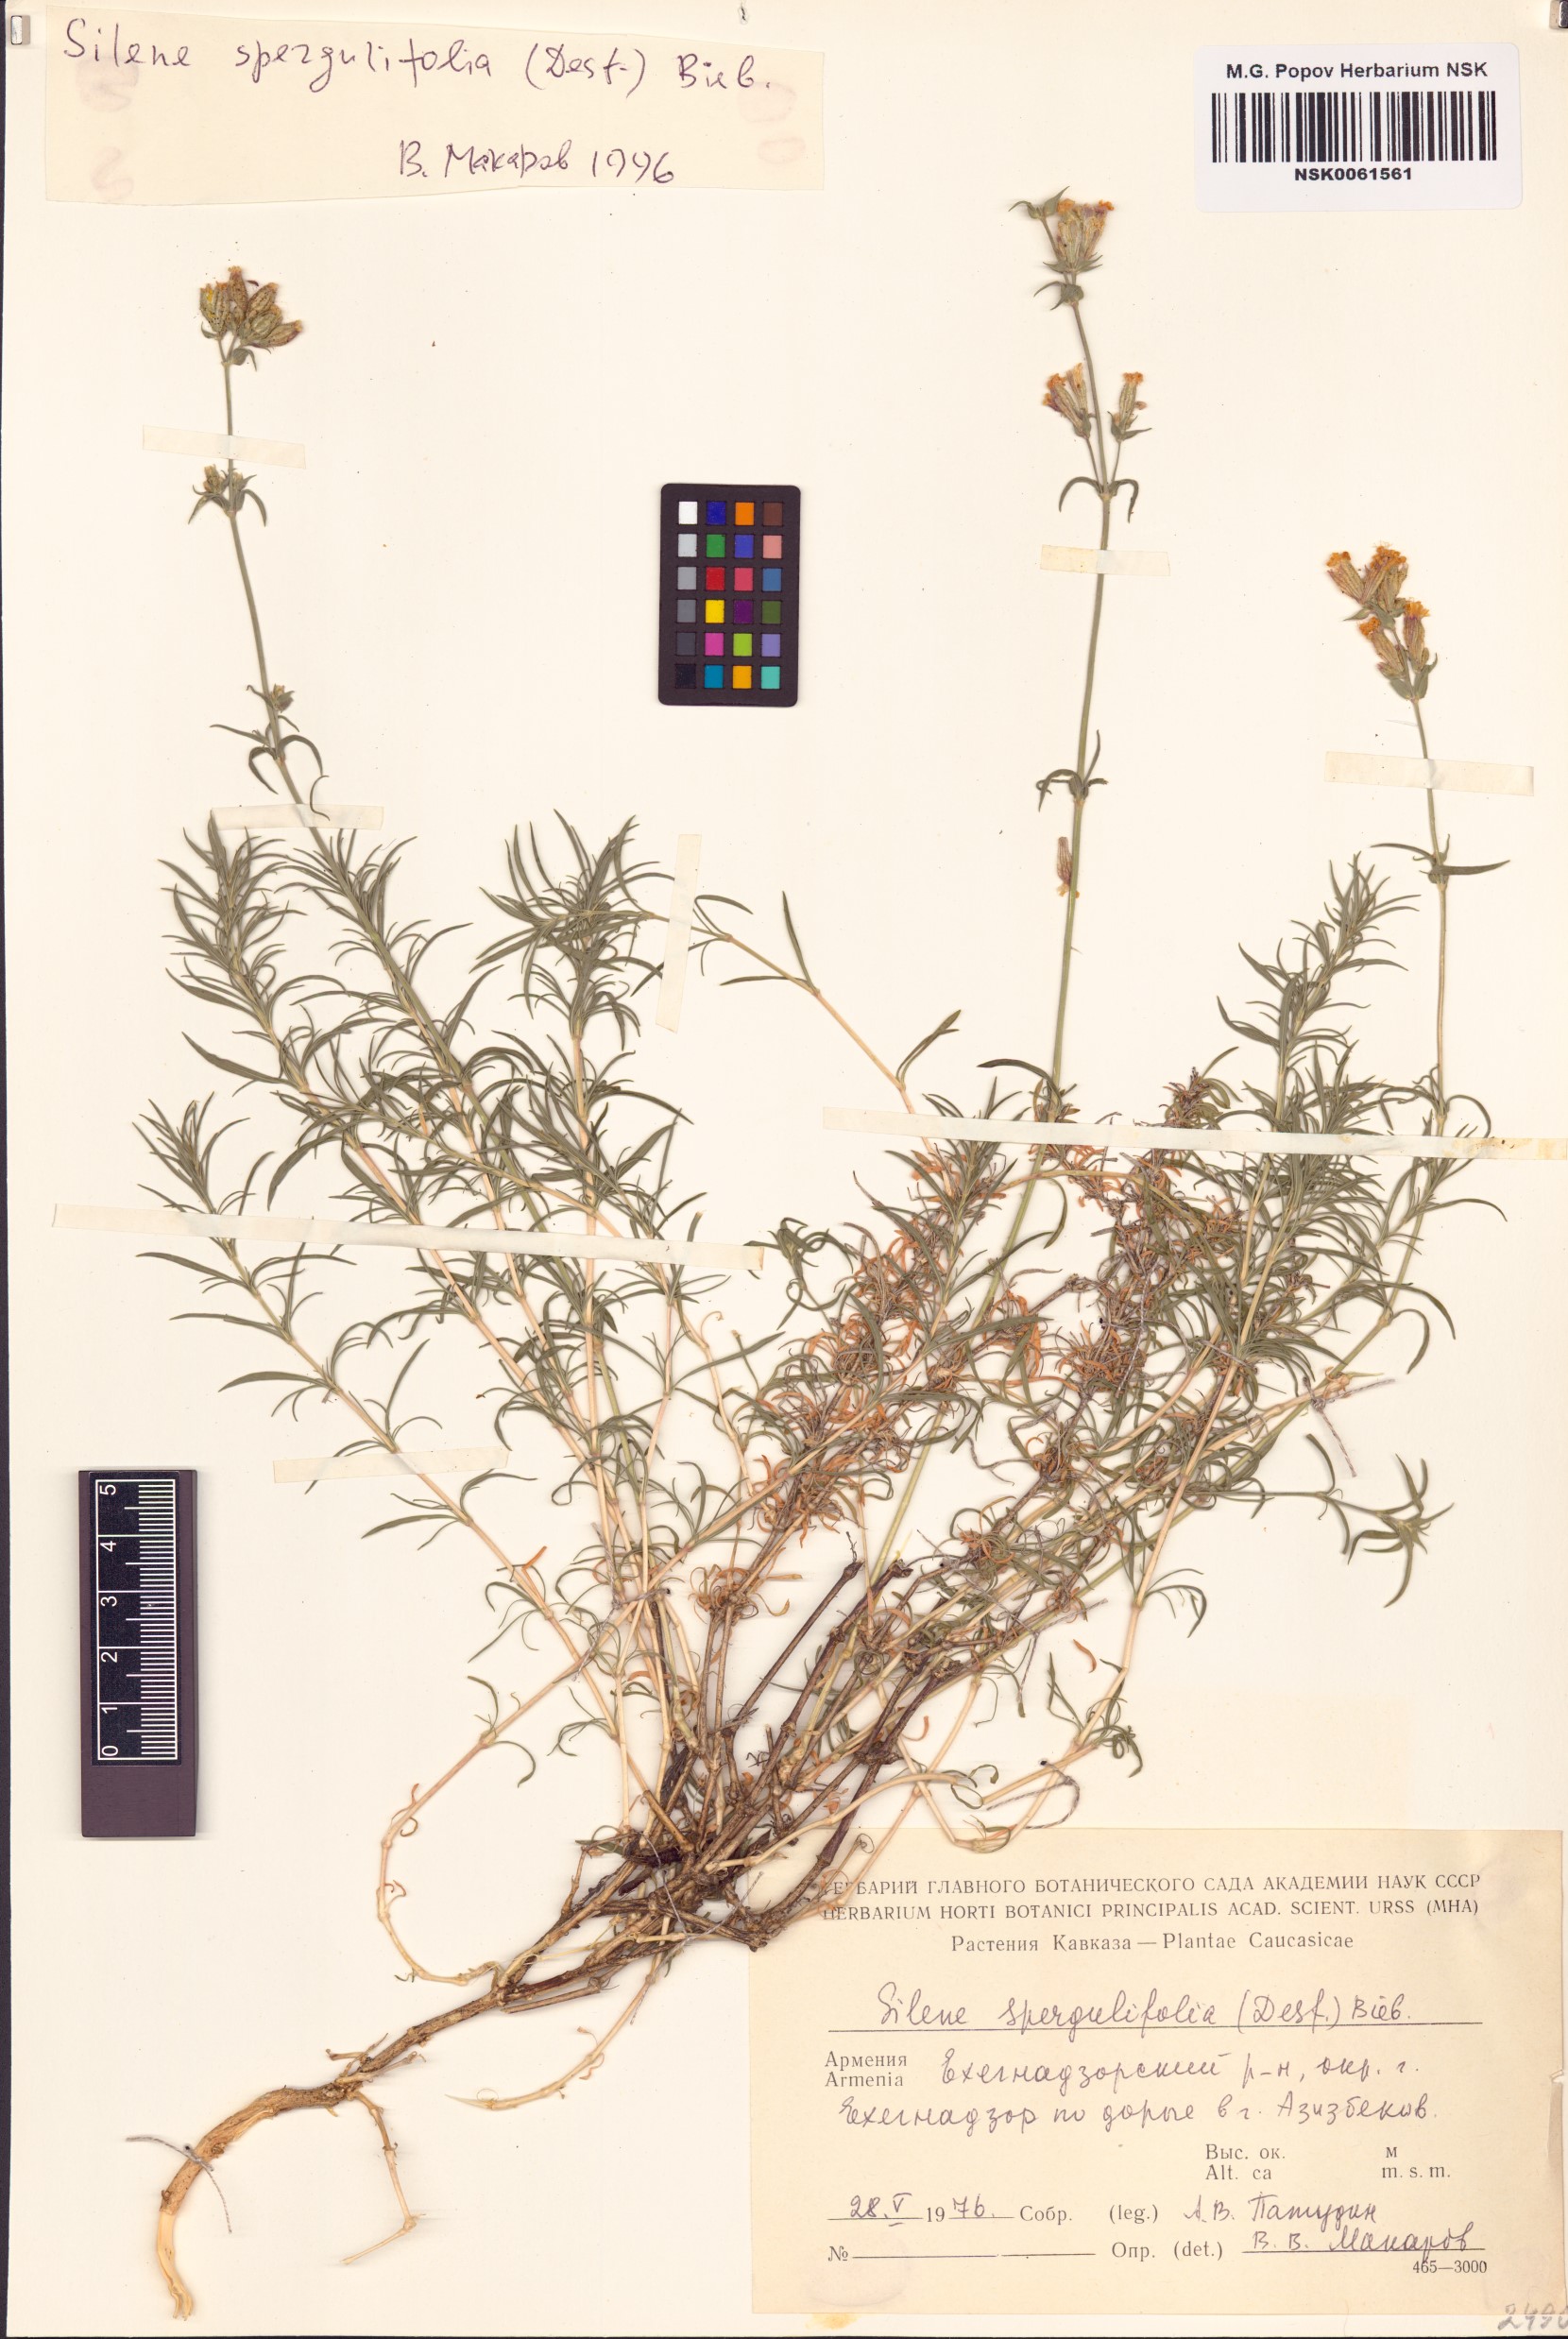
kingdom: Plantae
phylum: Tracheophyta
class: Magnoliopsida
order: Caryophyllales
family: Caryophyllaceae
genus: Silene
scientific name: Silene spergulifolia
